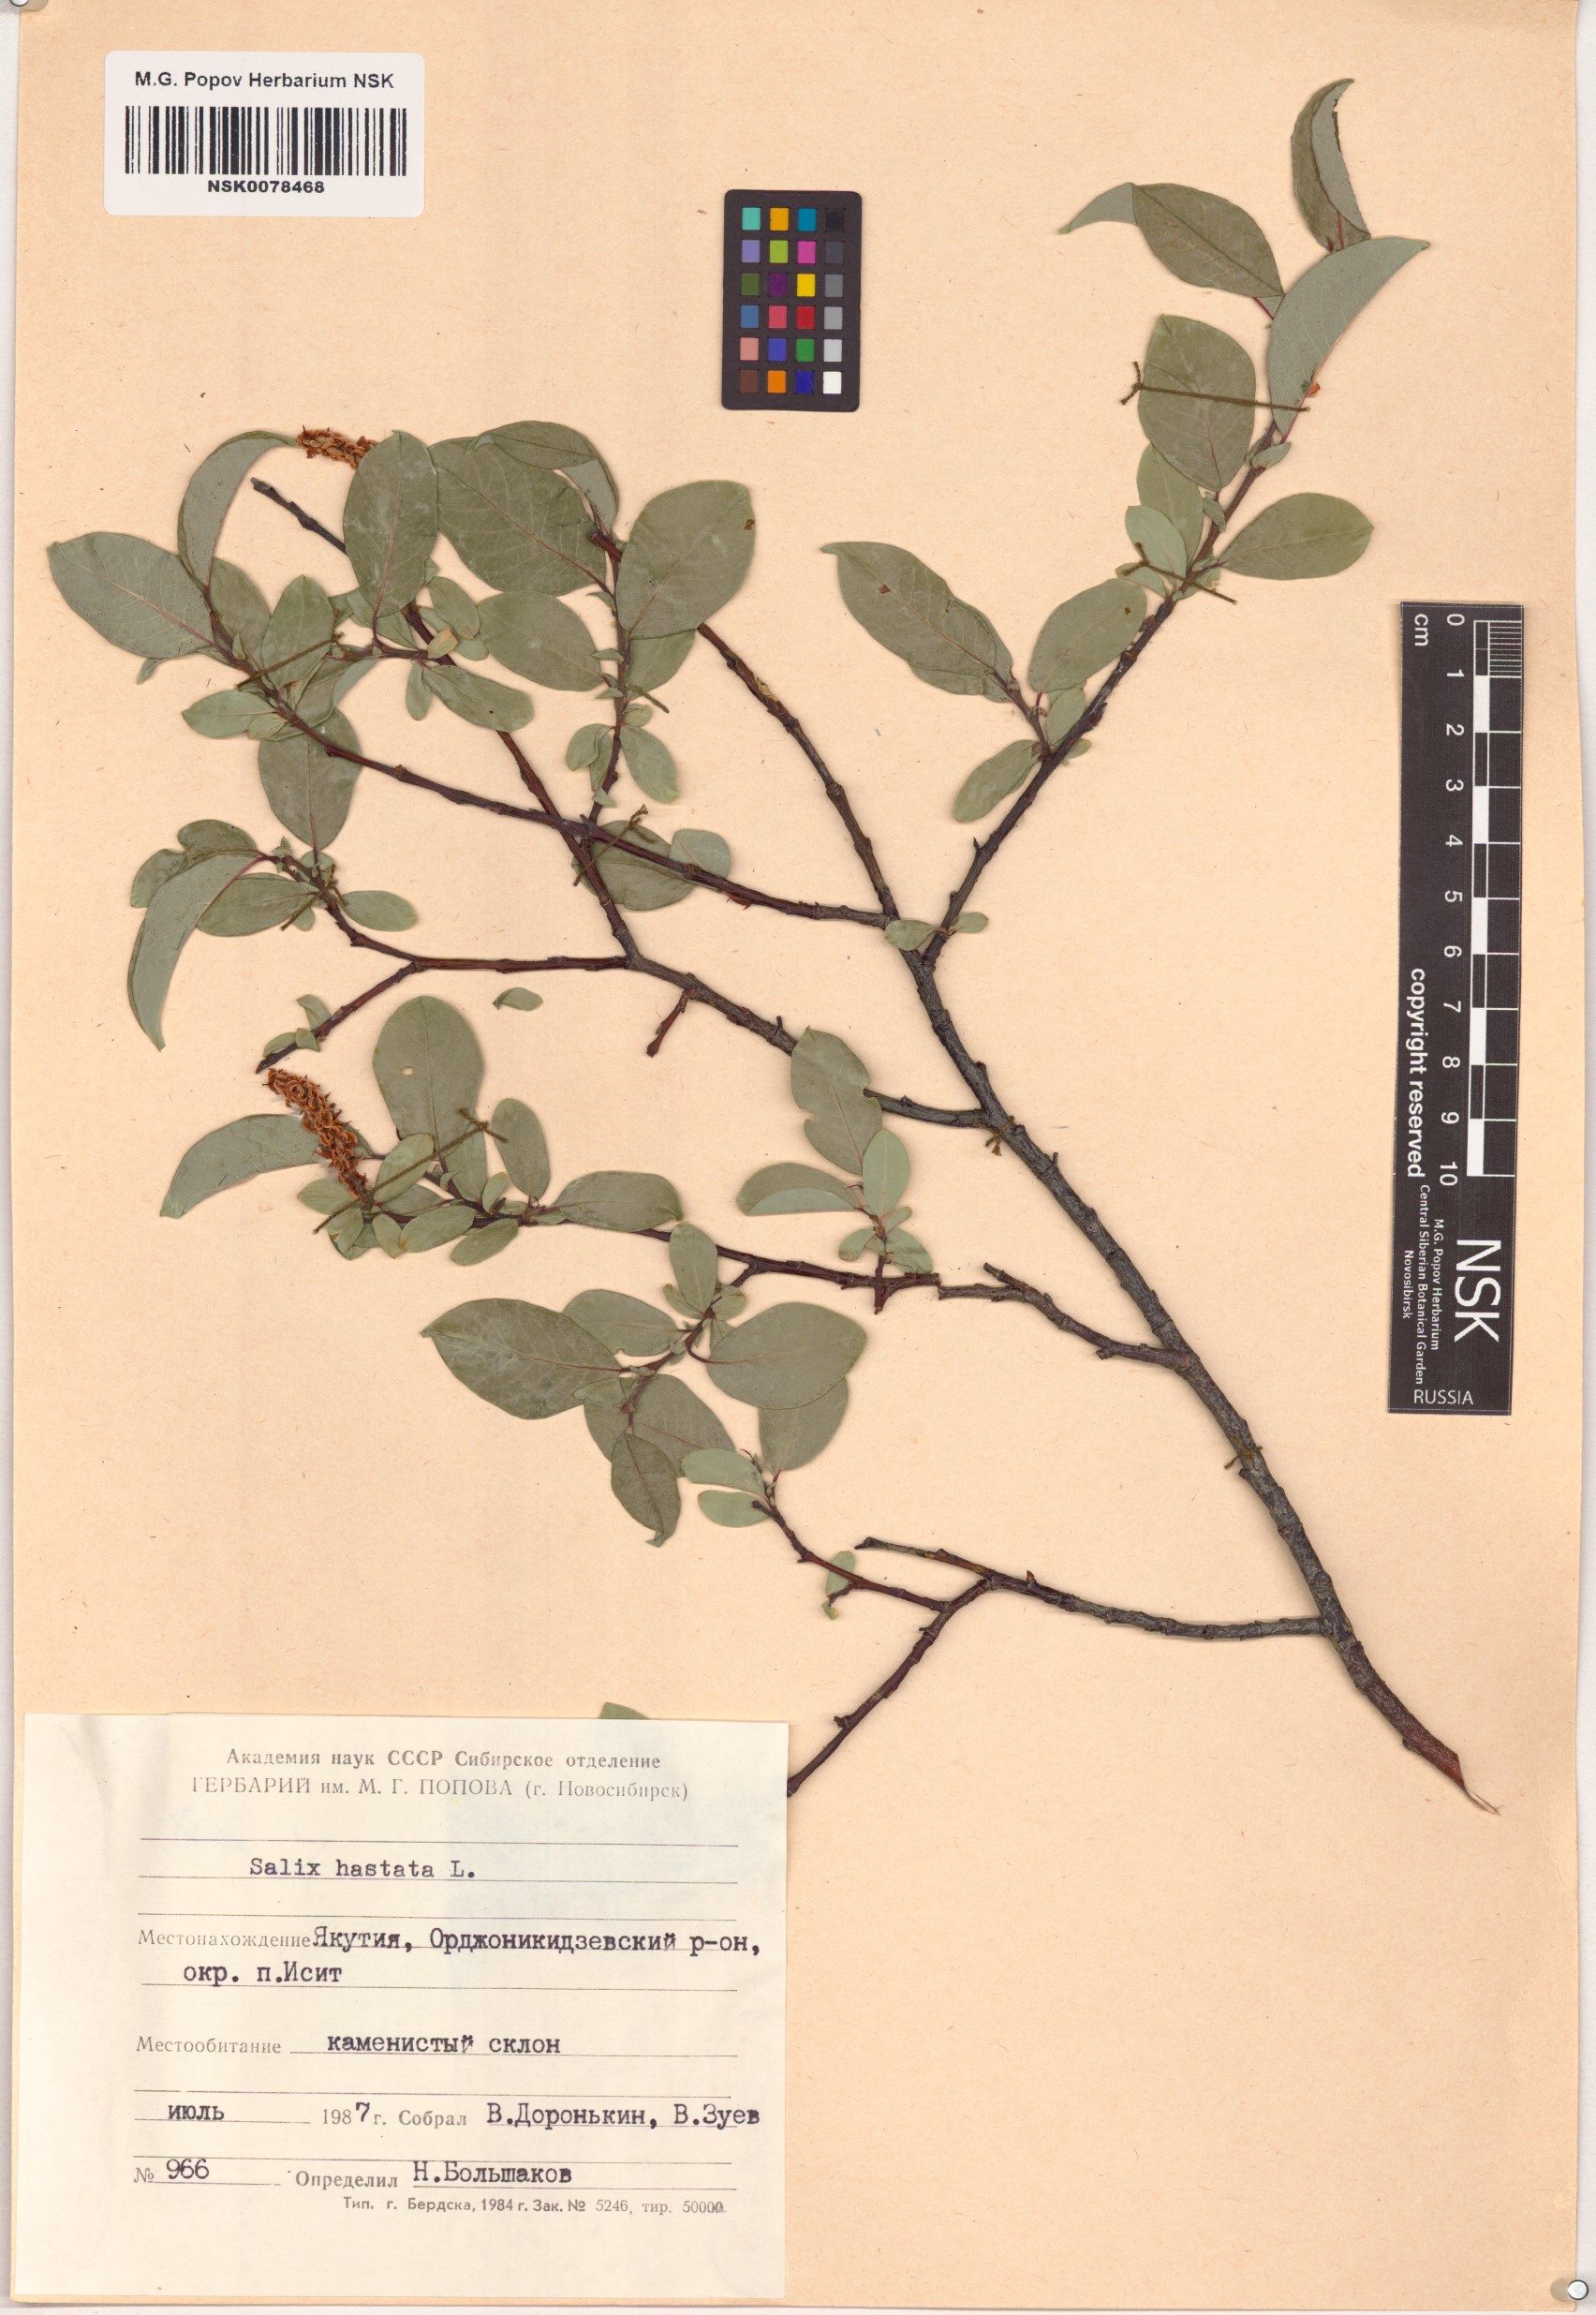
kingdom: Plantae
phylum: Tracheophyta
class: Magnoliopsida
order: Malpighiales
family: Salicaceae
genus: Salix
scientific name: Salix hastata
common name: Halberd willow
